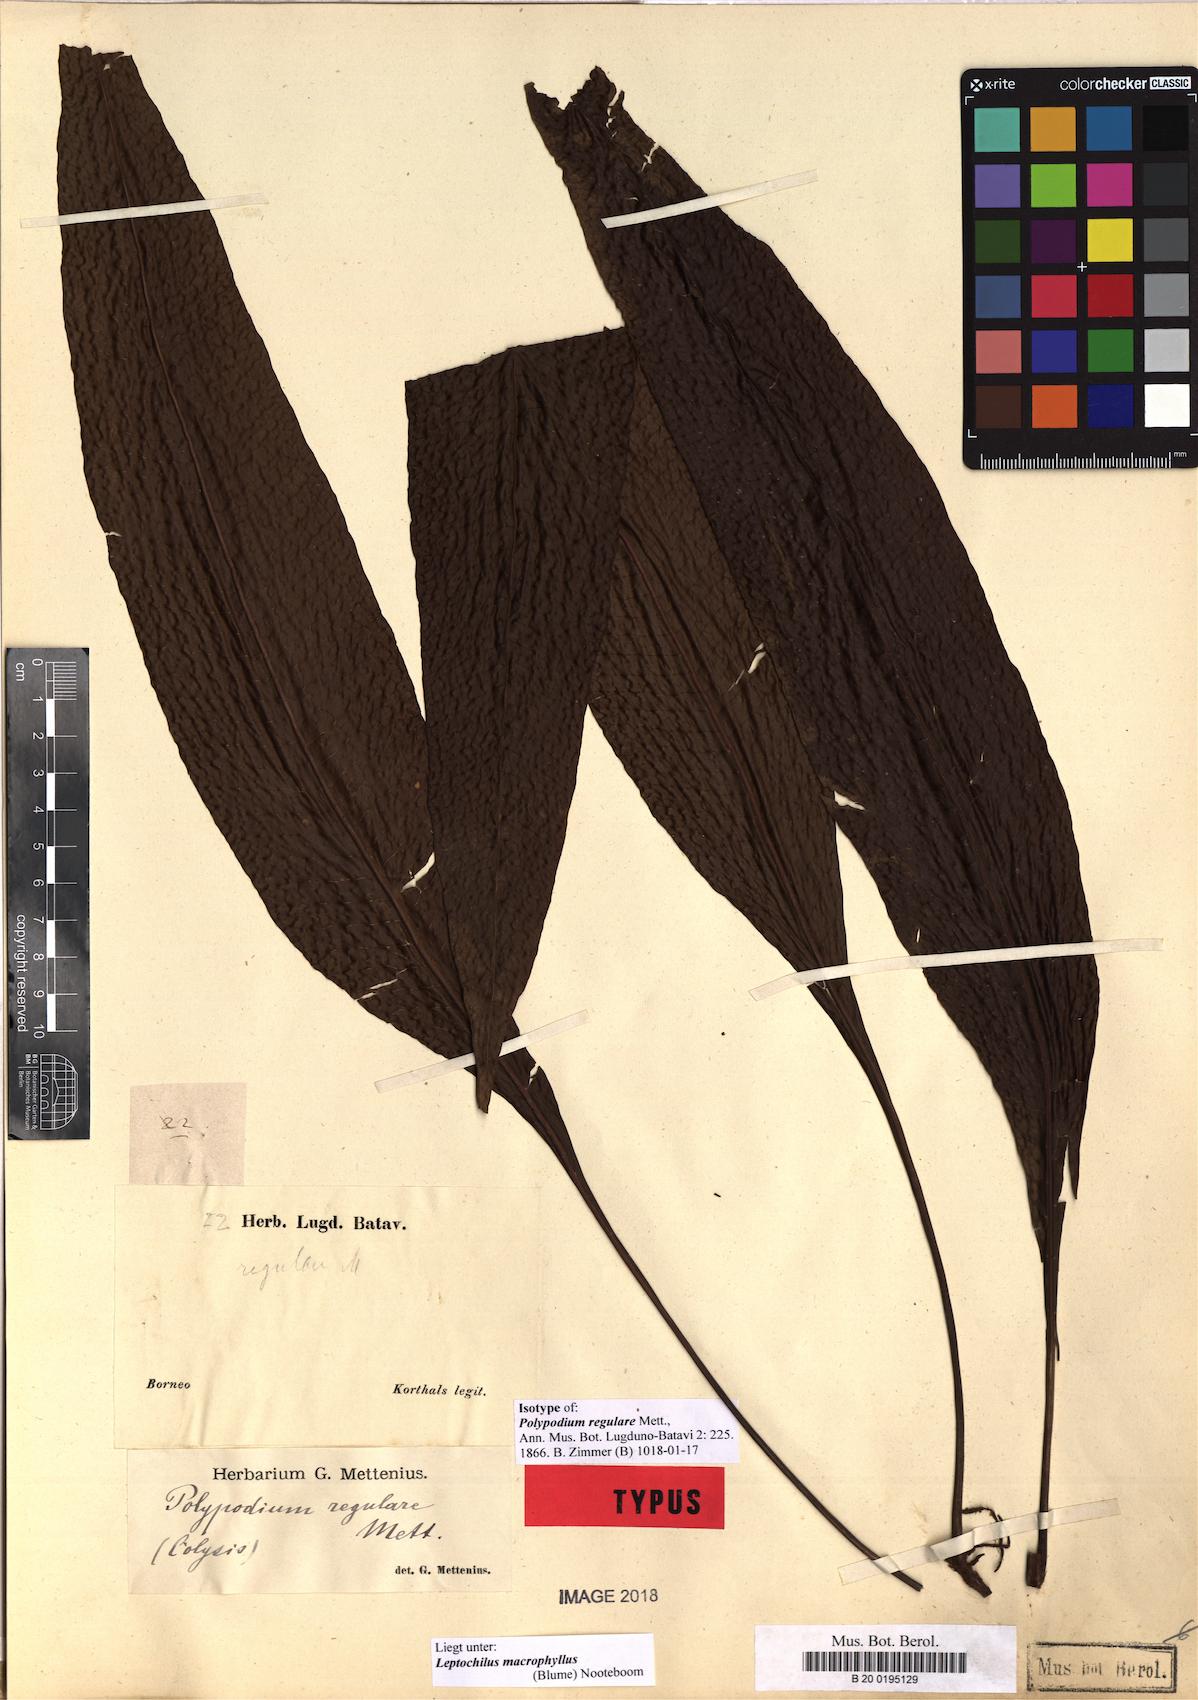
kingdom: Plantae
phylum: Tracheophyta
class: Polypodiopsida
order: Polypodiales
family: Polypodiaceae
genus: Leptochilus
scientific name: Leptochilus macrophyllus
